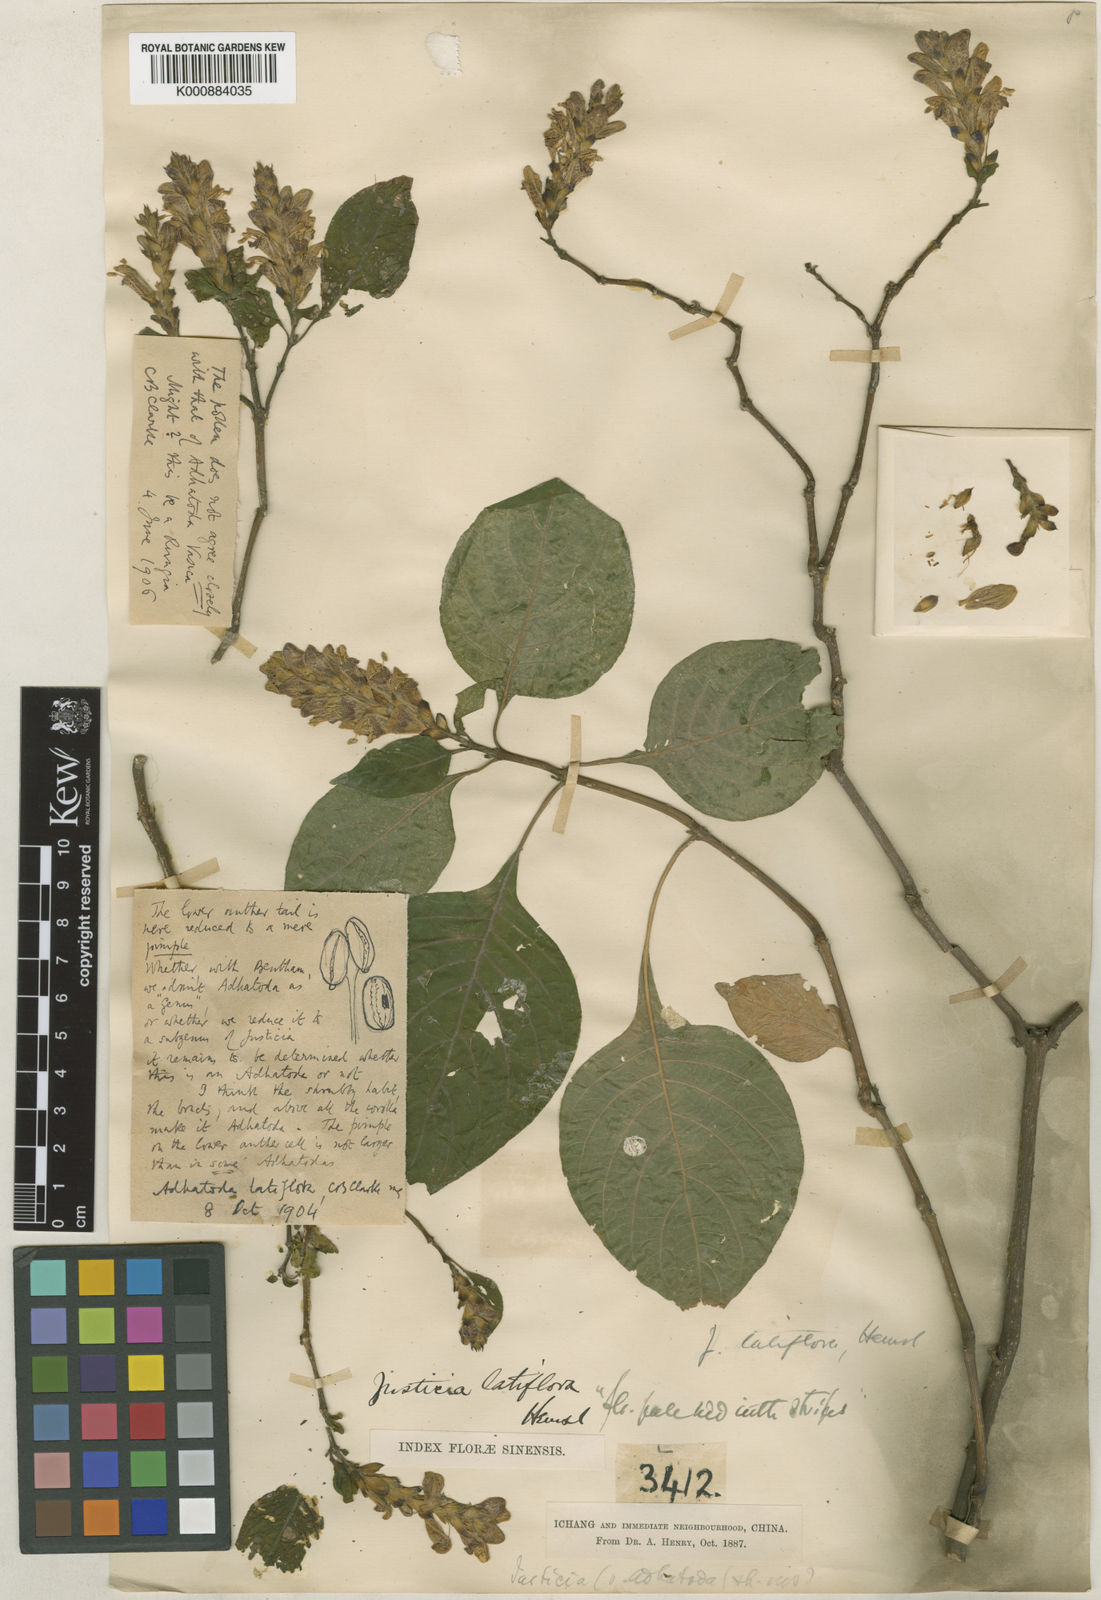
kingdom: Plantae
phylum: Tracheophyta
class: Magnoliopsida
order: Lamiales
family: Acanthaceae
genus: Justicia
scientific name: Justicia latiflora
